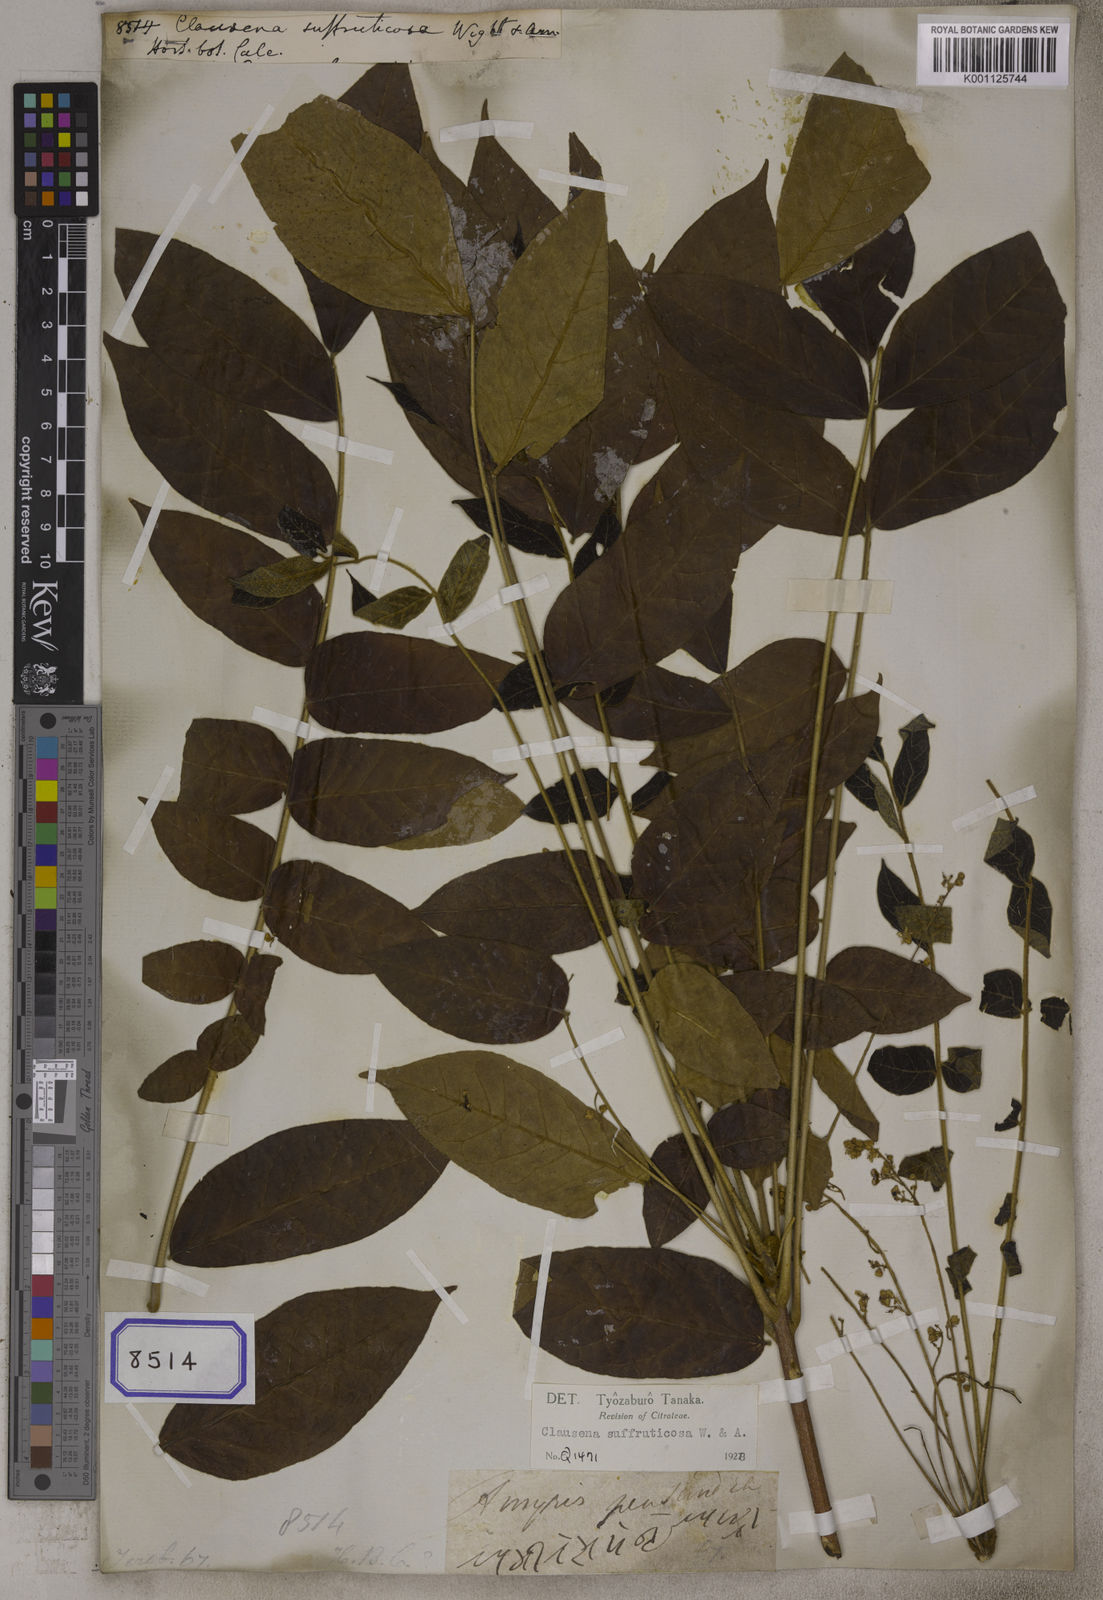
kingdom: Plantae
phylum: Tracheophyta
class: Magnoliopsida
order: Sapindales
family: Rutaceae
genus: Clausena
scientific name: Clausena anisata
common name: Horsewood
